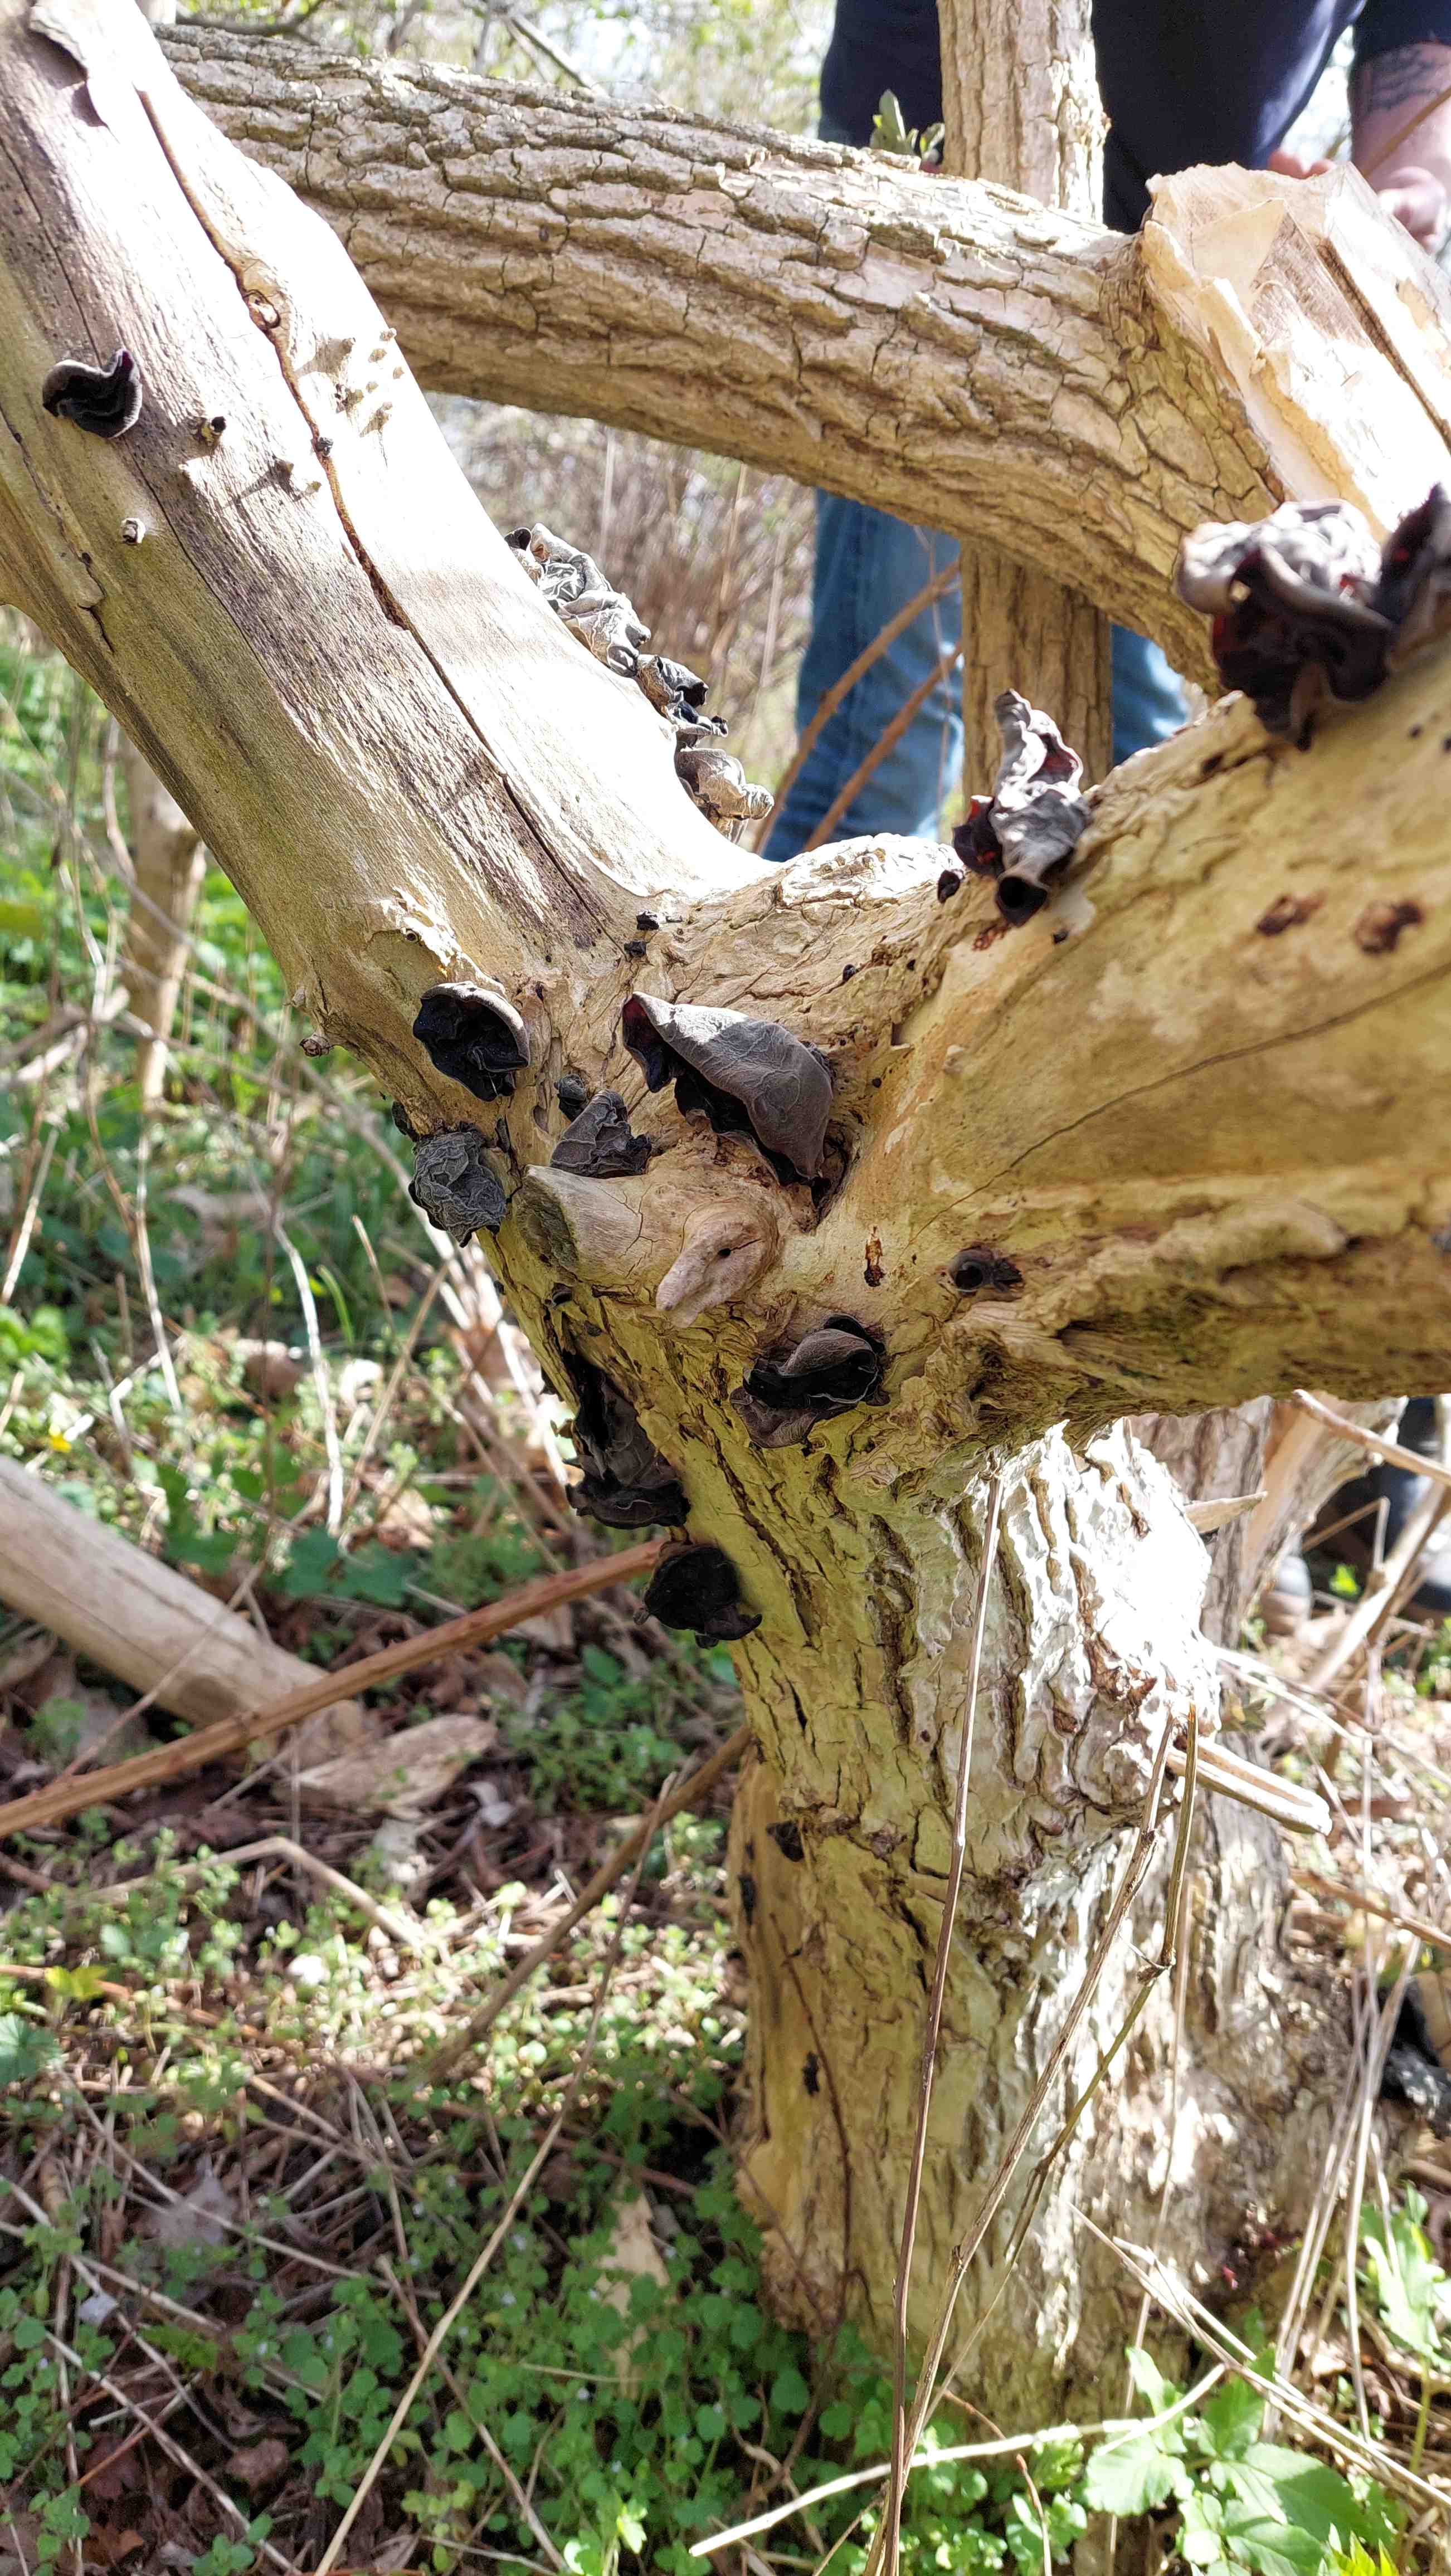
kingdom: Fungi
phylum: Basidiomycota
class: Agaricomycetes
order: Auriculariales
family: Auriculariaceae
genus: Auricularia
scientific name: Auricularia auricula-judae
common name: almindelig judasøre
